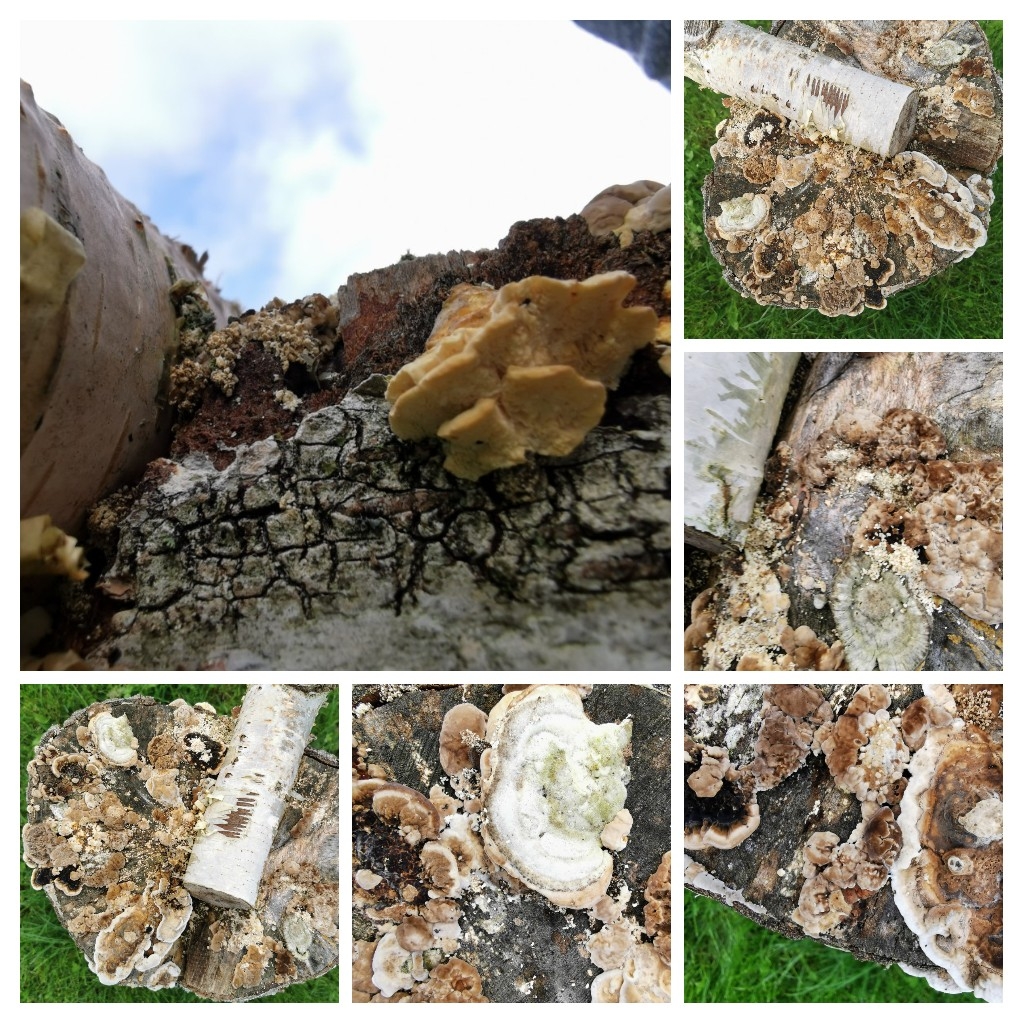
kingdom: Fungi
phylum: Basidiomycota
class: Agaricomycetes
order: Polyporales
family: Polyporaceae
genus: Trametes
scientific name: Trametes hirsuta
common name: håret læderporesvamp
